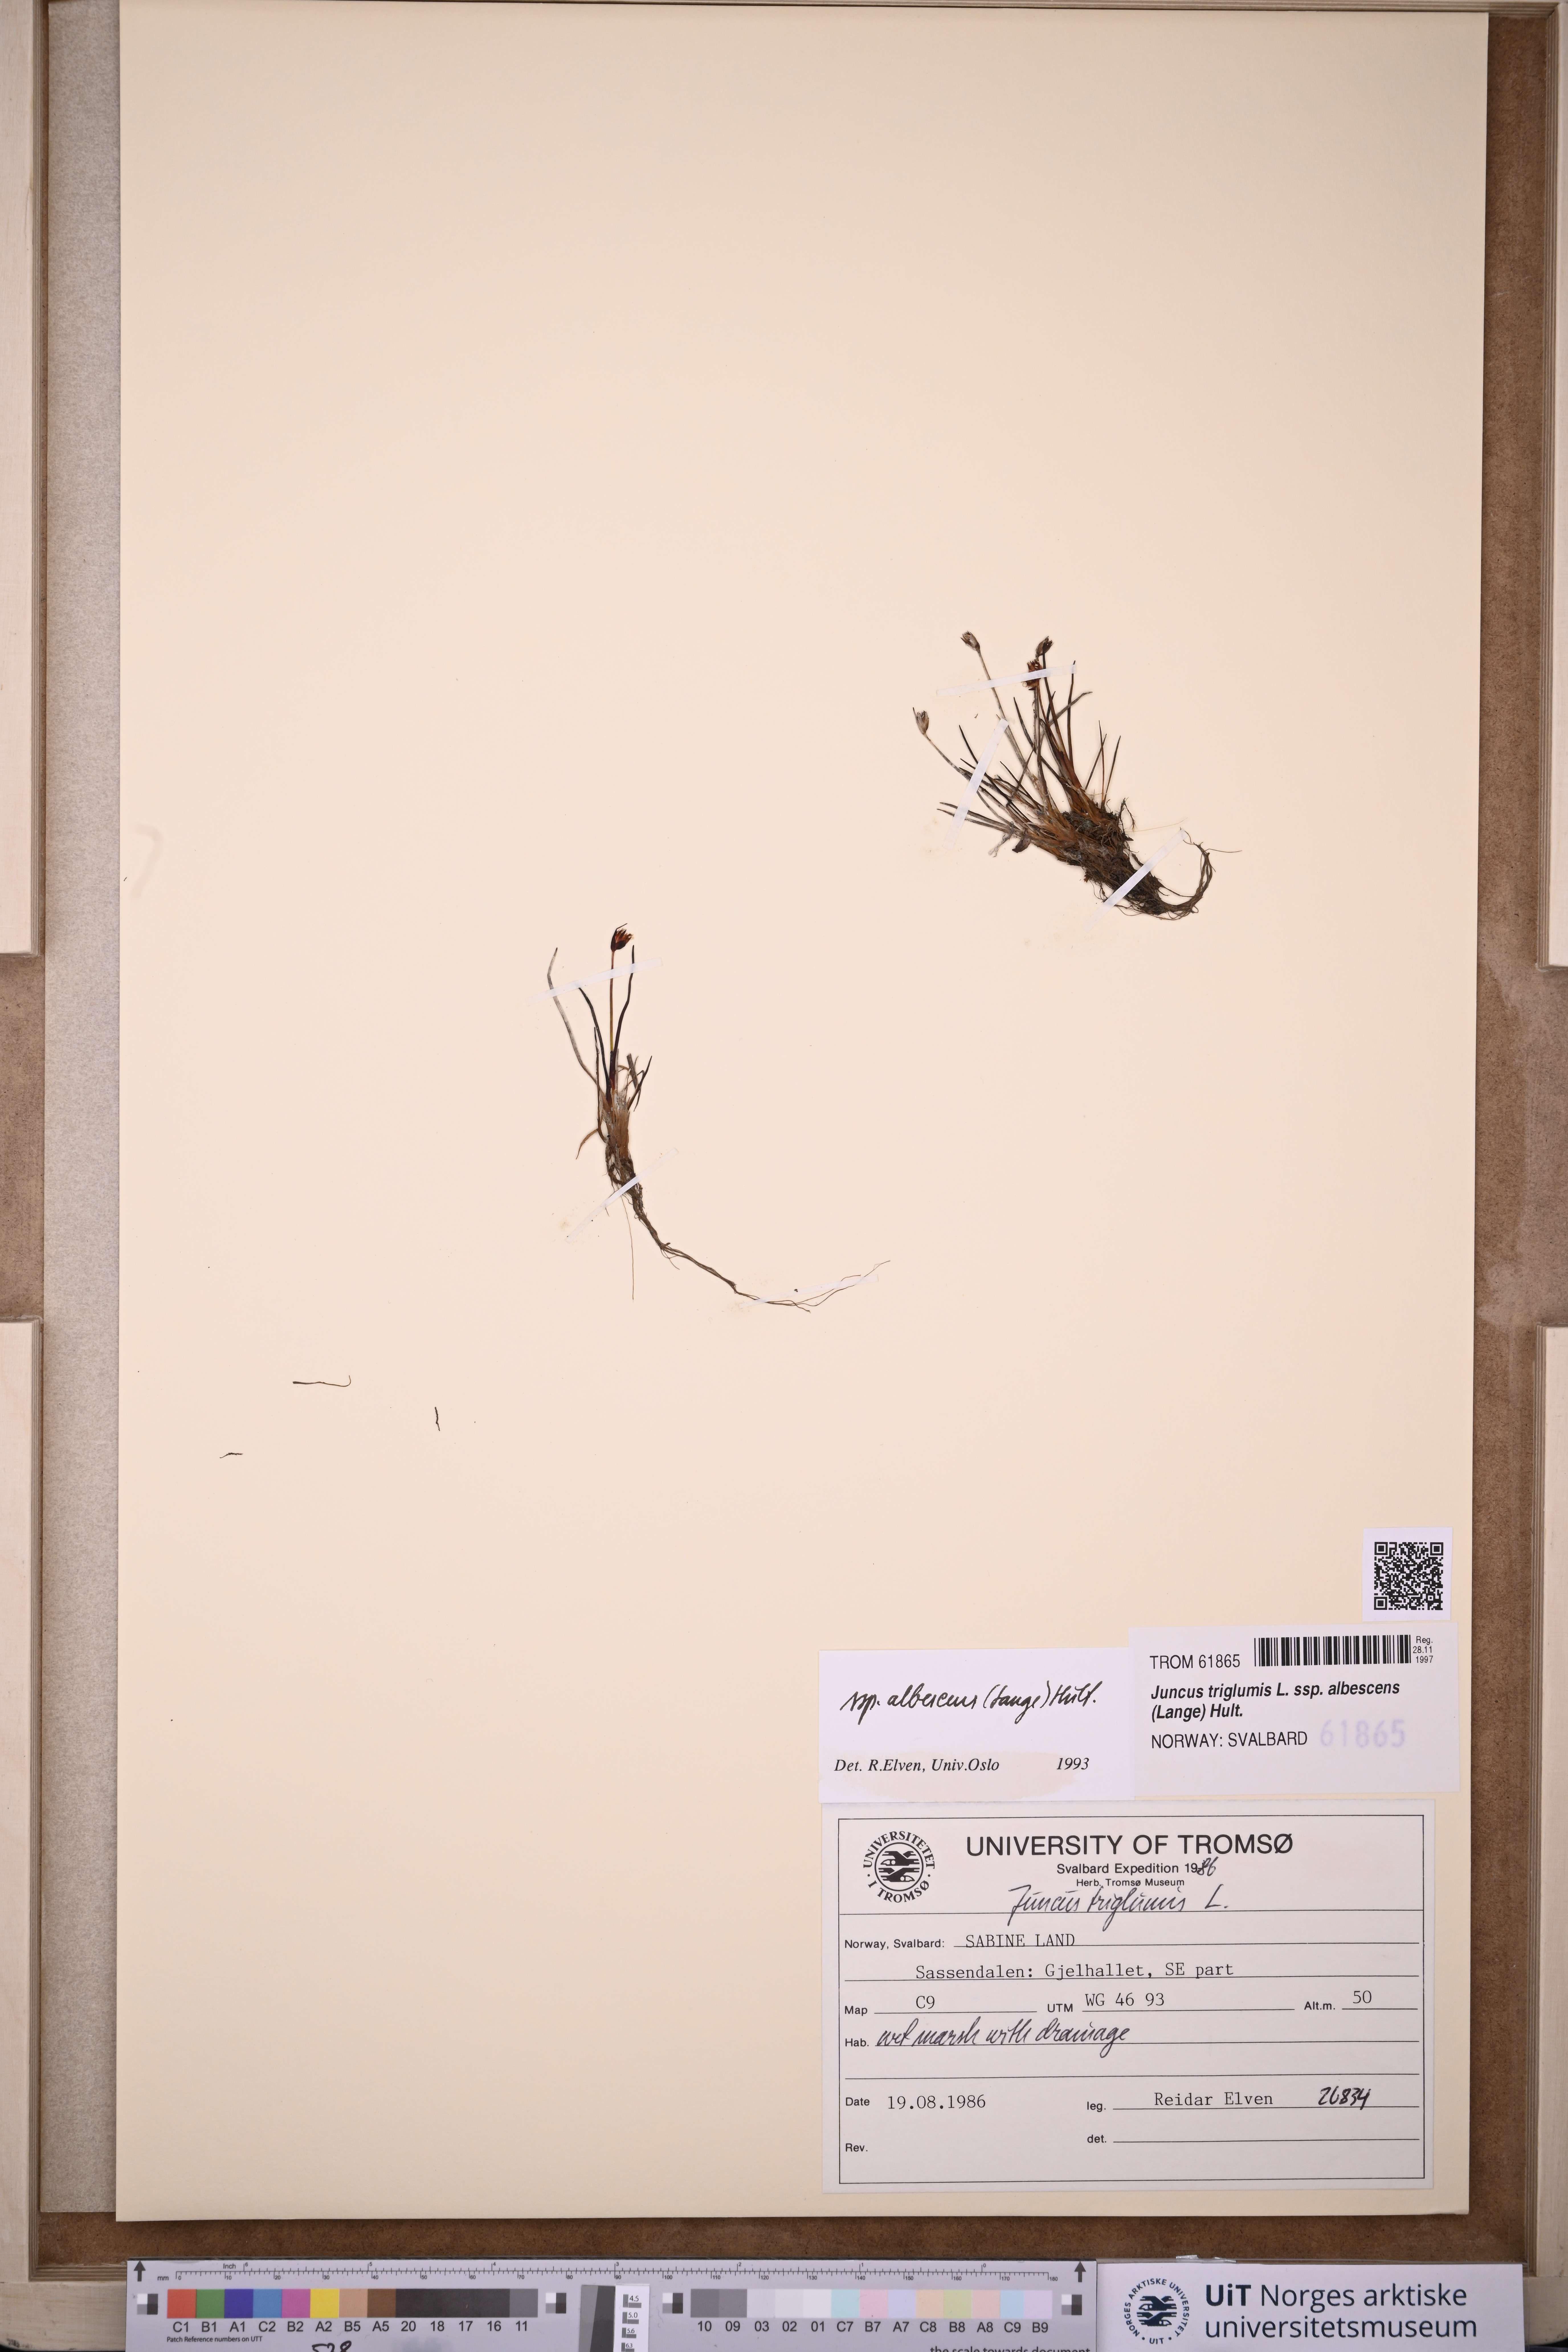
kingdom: Plantae
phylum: Tracheophyta
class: Liliopsida
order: Poales
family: Juncaceae
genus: Juncus
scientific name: Juncus albescens
